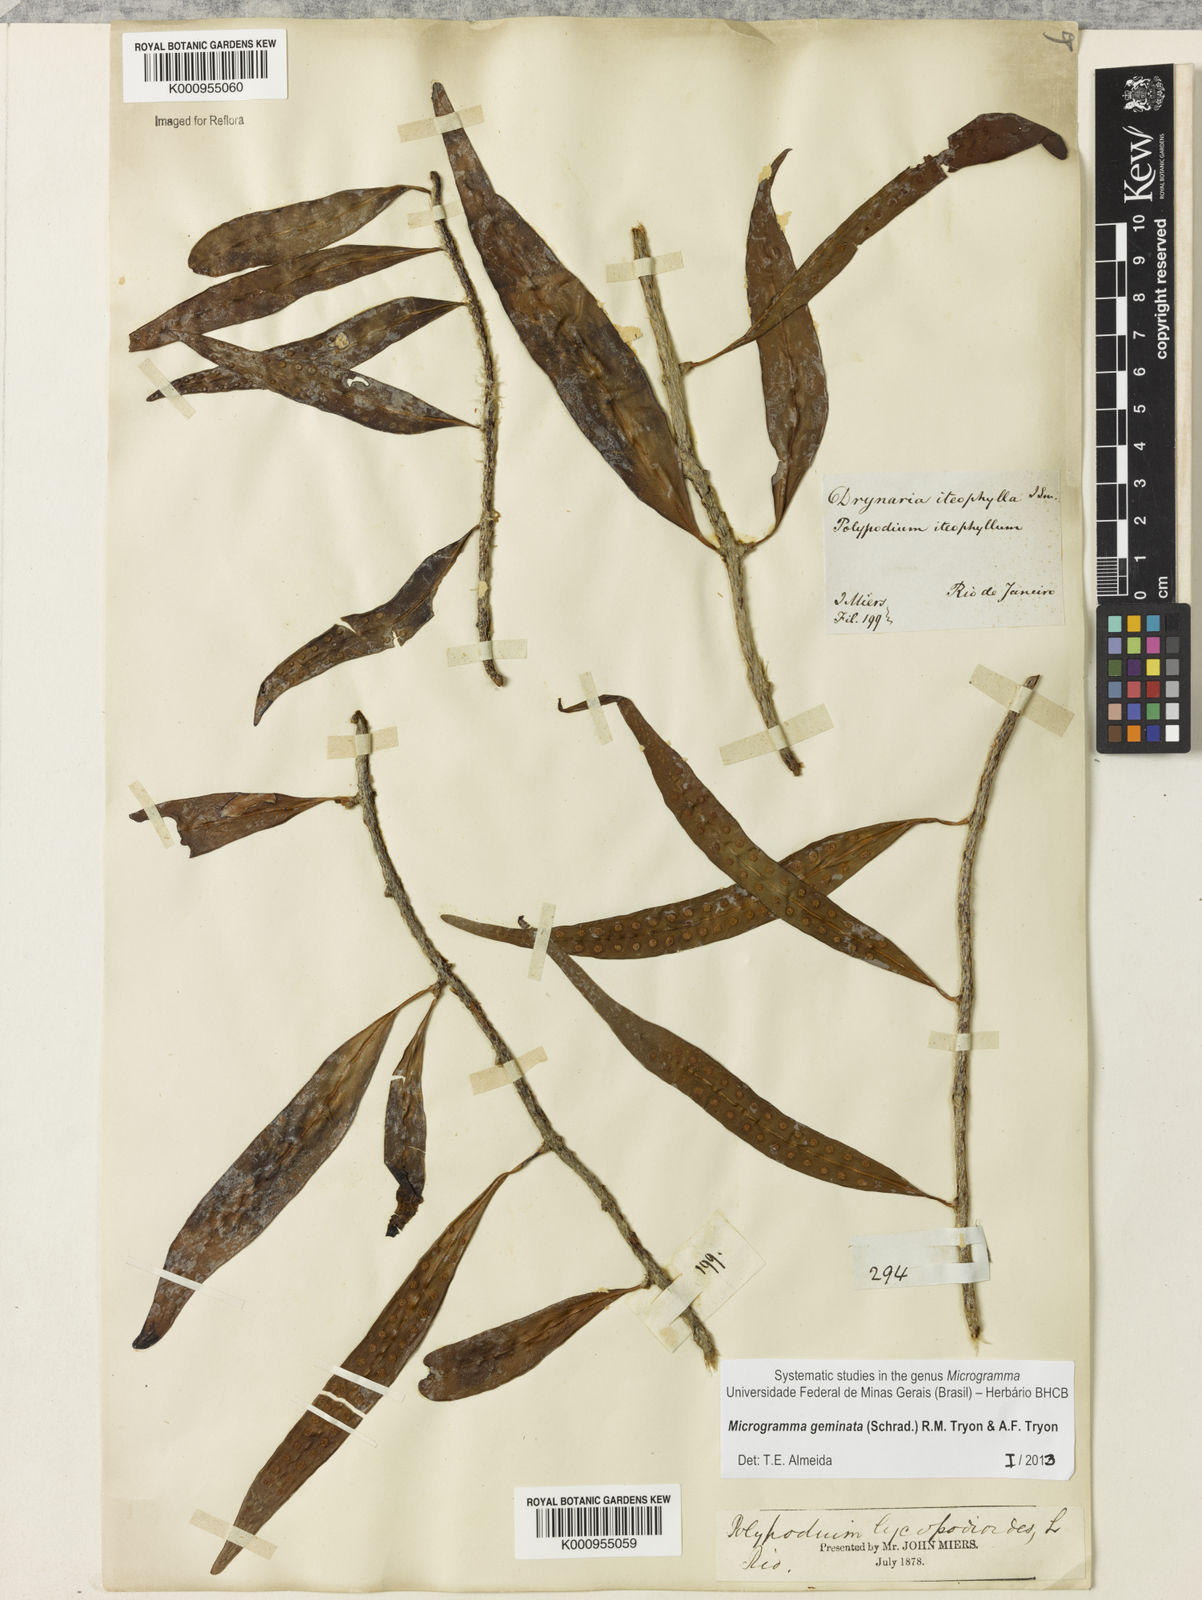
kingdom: Plantae
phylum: Tracheophyta
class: Polypodiopsida
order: Polypodiales
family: Polypodiaceae
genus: Microgramma
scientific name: Microgramma geminata
